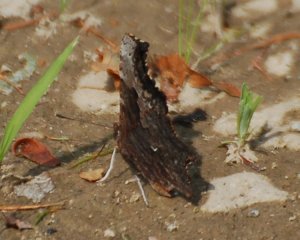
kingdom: Animalia
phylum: Arthropoda
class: Insecta
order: Lepidoptera
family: Nymphalidae
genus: Polygonia
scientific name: Polygonia progne
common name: Gray Comma
